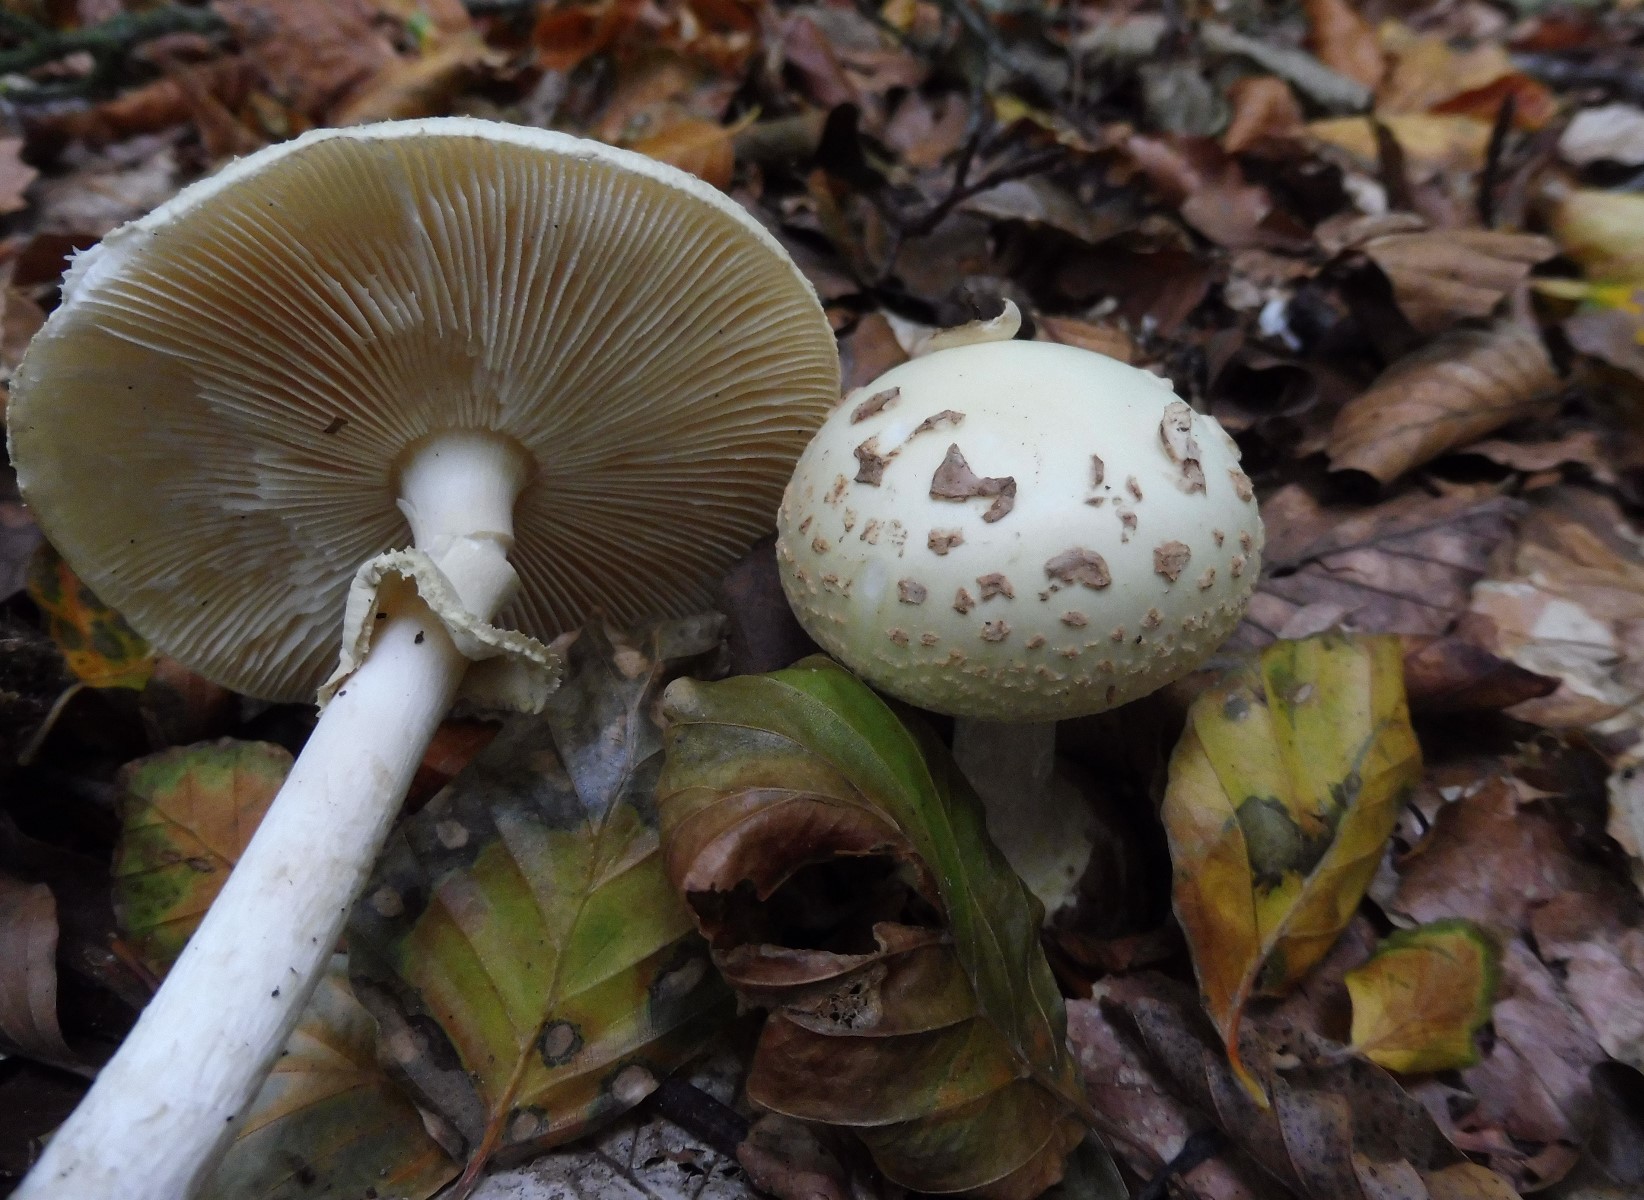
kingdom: Fungi
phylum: Basidiomycota
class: Agaricomycetes
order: Agaricales
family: Amanitaceae
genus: Amanita
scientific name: Amanita citrina
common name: kugleknoldet fluesvamp
